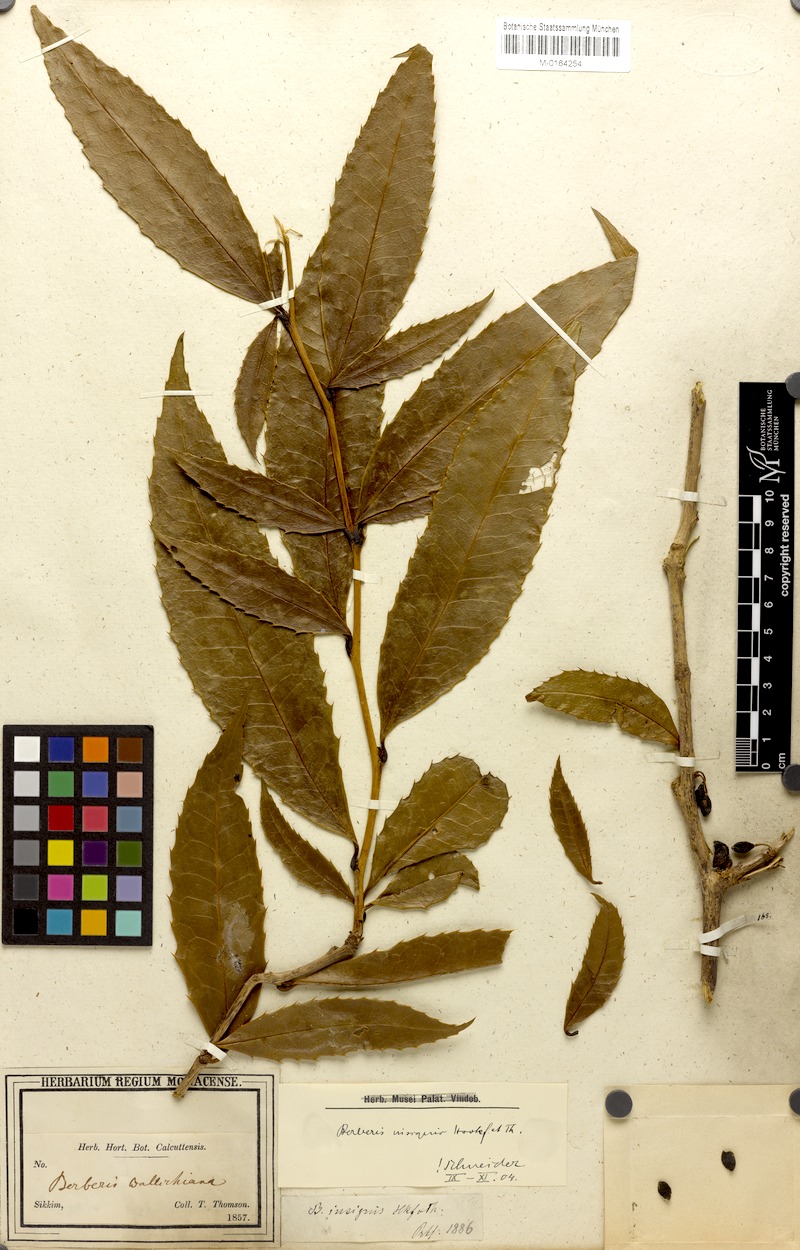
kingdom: Plantae
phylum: Tracheophyta
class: Magnoliopsida
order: Ranunculales
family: Berberidaceae
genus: Berberis
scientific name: Berberis insignis
